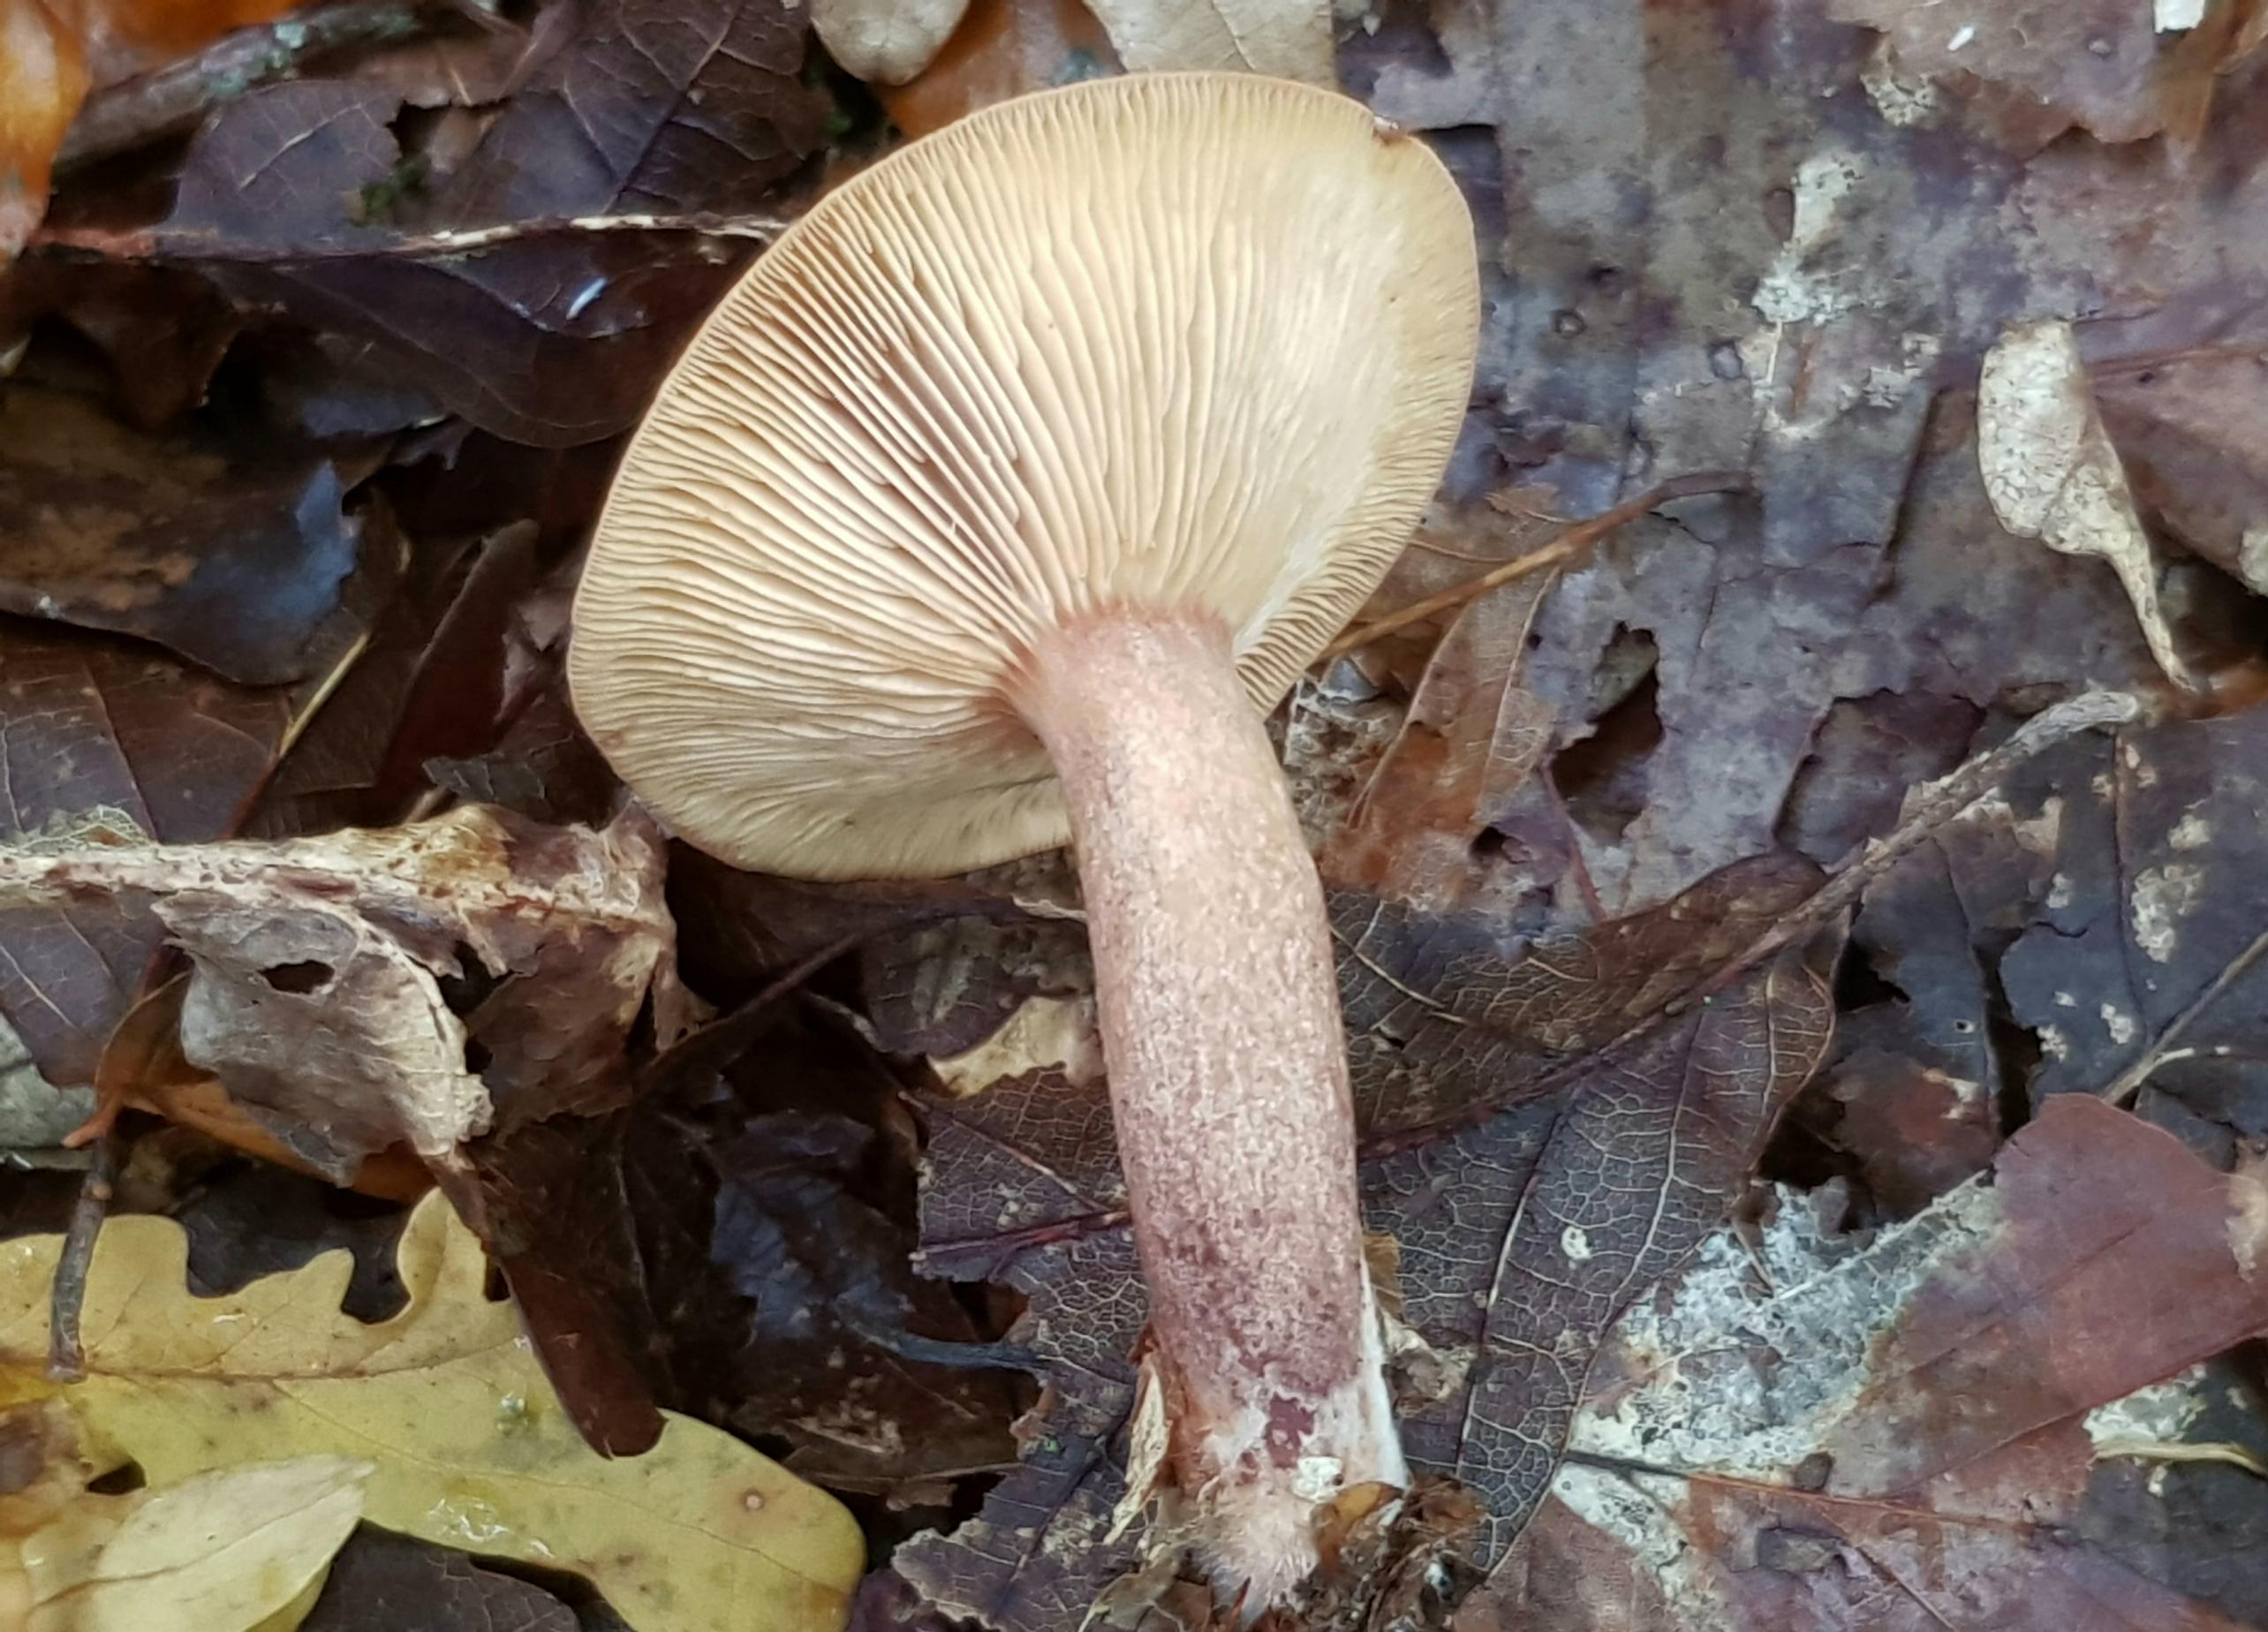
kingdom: Fungi
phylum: Basidiomycota
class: Agaricomycetes
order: Russulales
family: Russulaceae
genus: Lactarius
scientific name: Lactarius quietus
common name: ege-mælkehat
